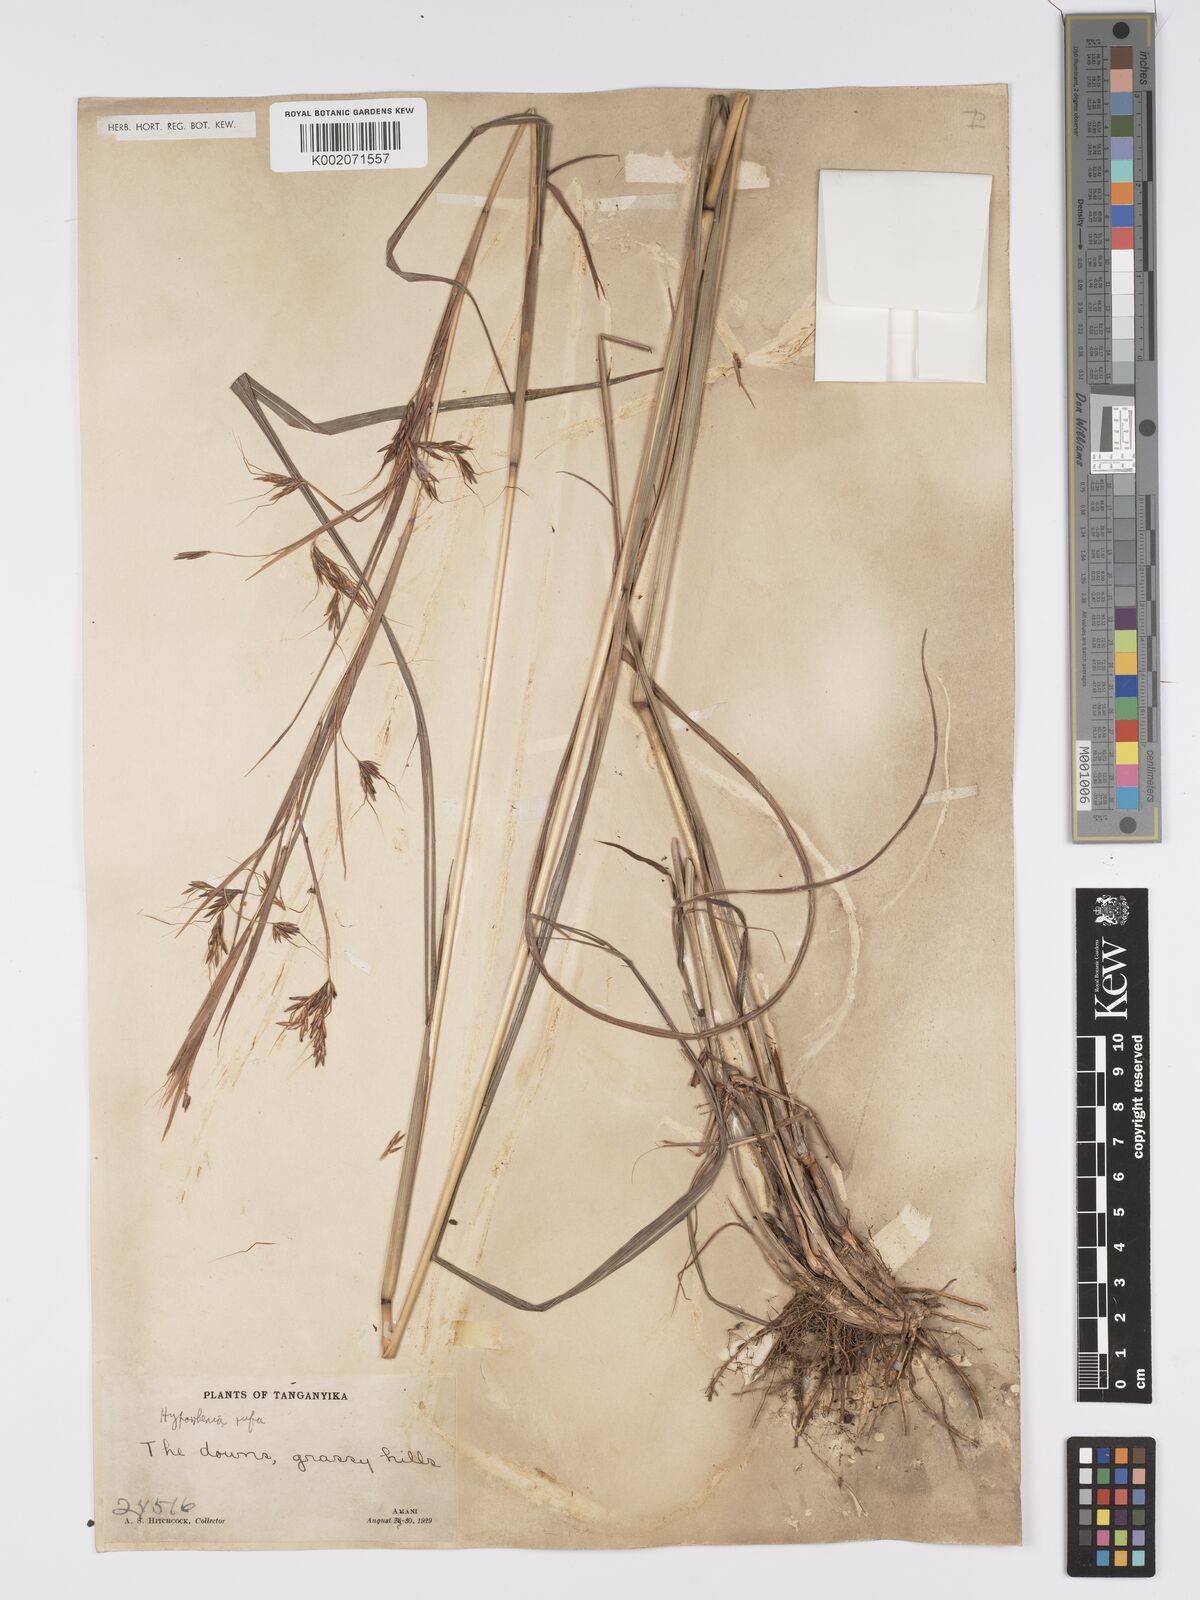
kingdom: Plantae
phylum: Tracheophyta
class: Liliopsida
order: Poales
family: Poaceae
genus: Hyparrhenia
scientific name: Hyparrhenia rufa
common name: Jaraguagrass
